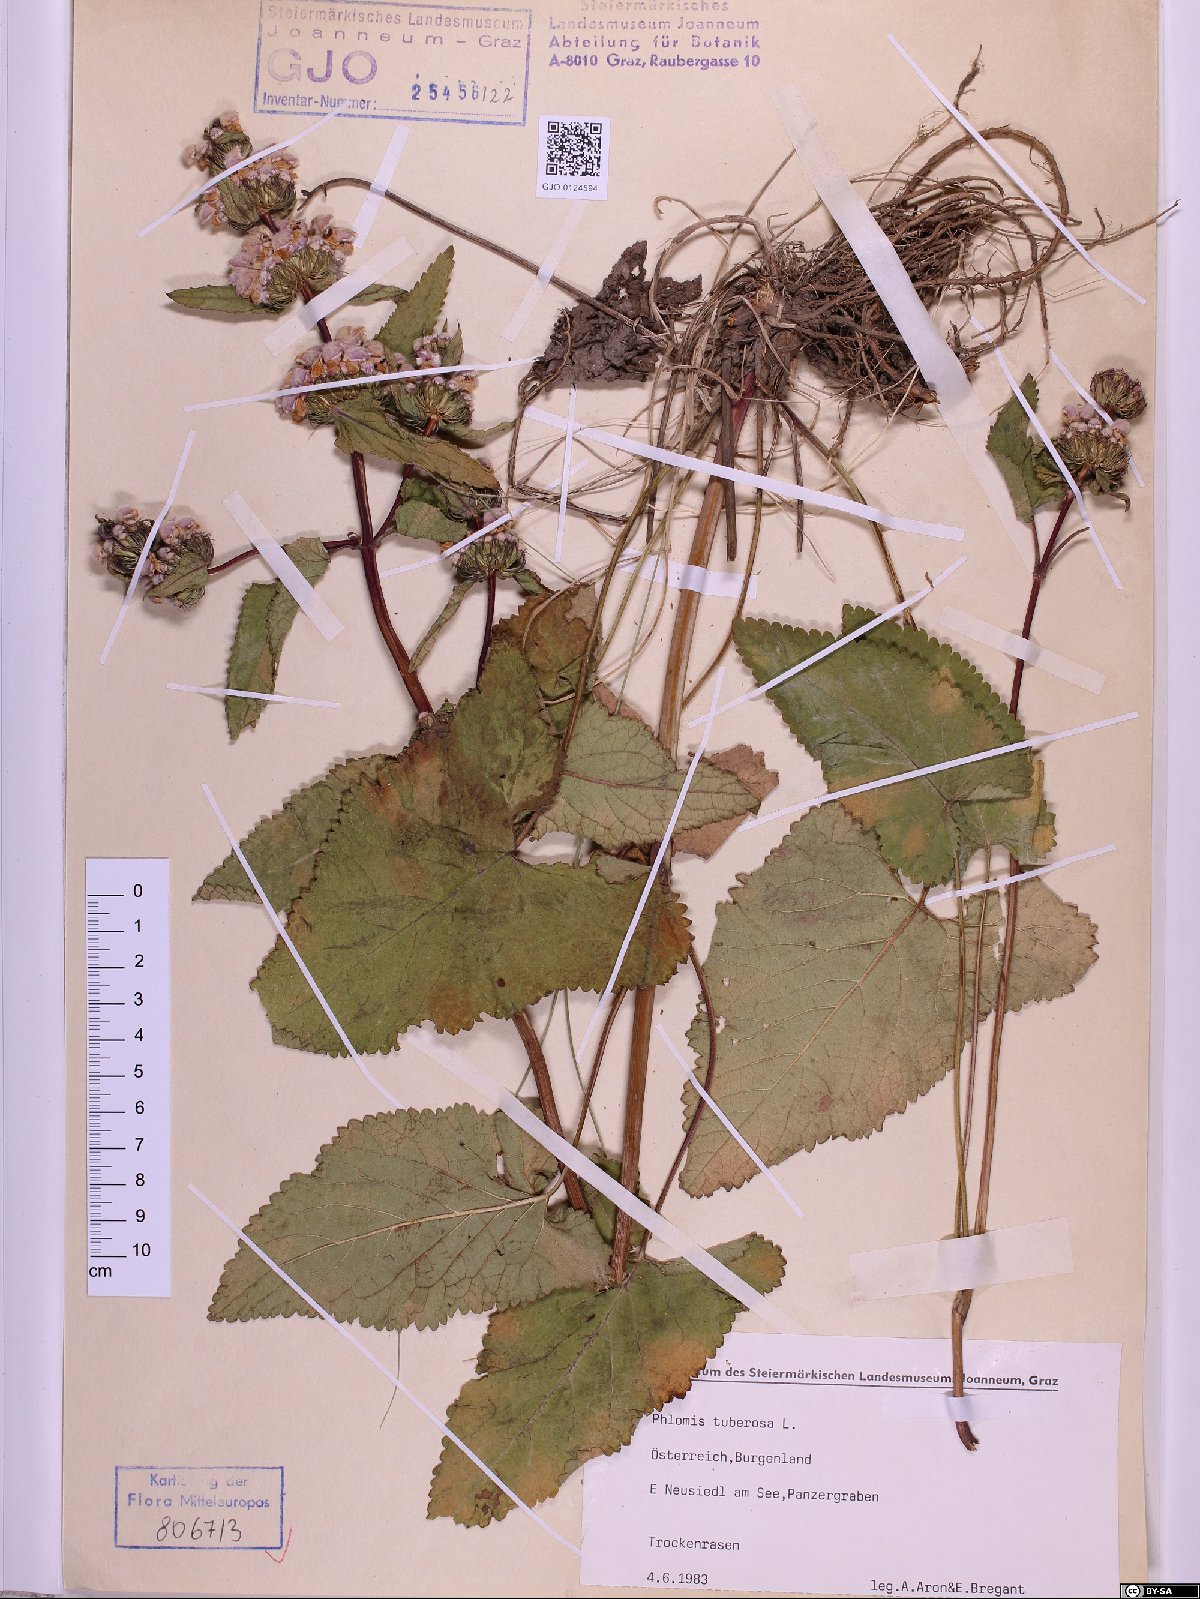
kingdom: Plantae
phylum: Tracheophyta
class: Magnoliopsida
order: Lamiales
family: Lamiaceae
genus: Phlomoides
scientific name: Phlomoides tuberosa
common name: Tuberous jerusalem sage
